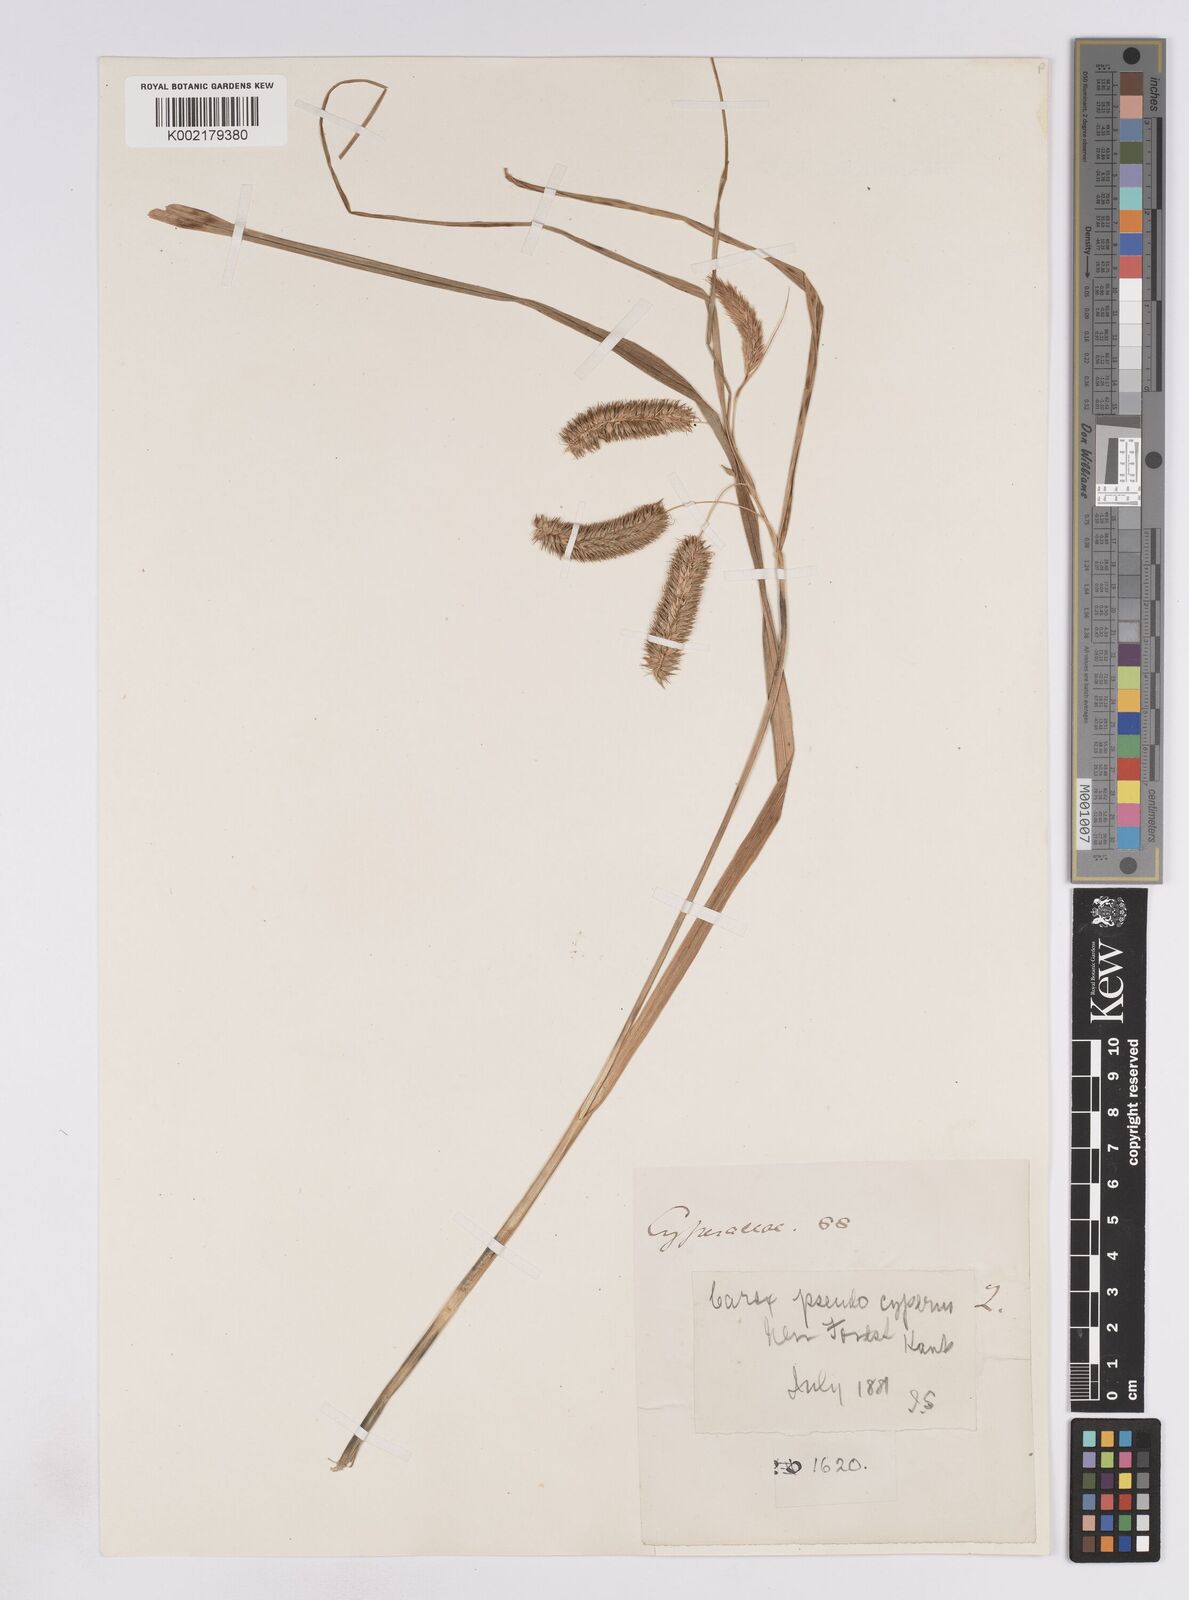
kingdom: Plantae
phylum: Tracheophyta
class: Liliopsida
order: Poales
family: Cyperaceae
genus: Carex
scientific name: Carex pseudocyperus
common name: Cyperus sedge
